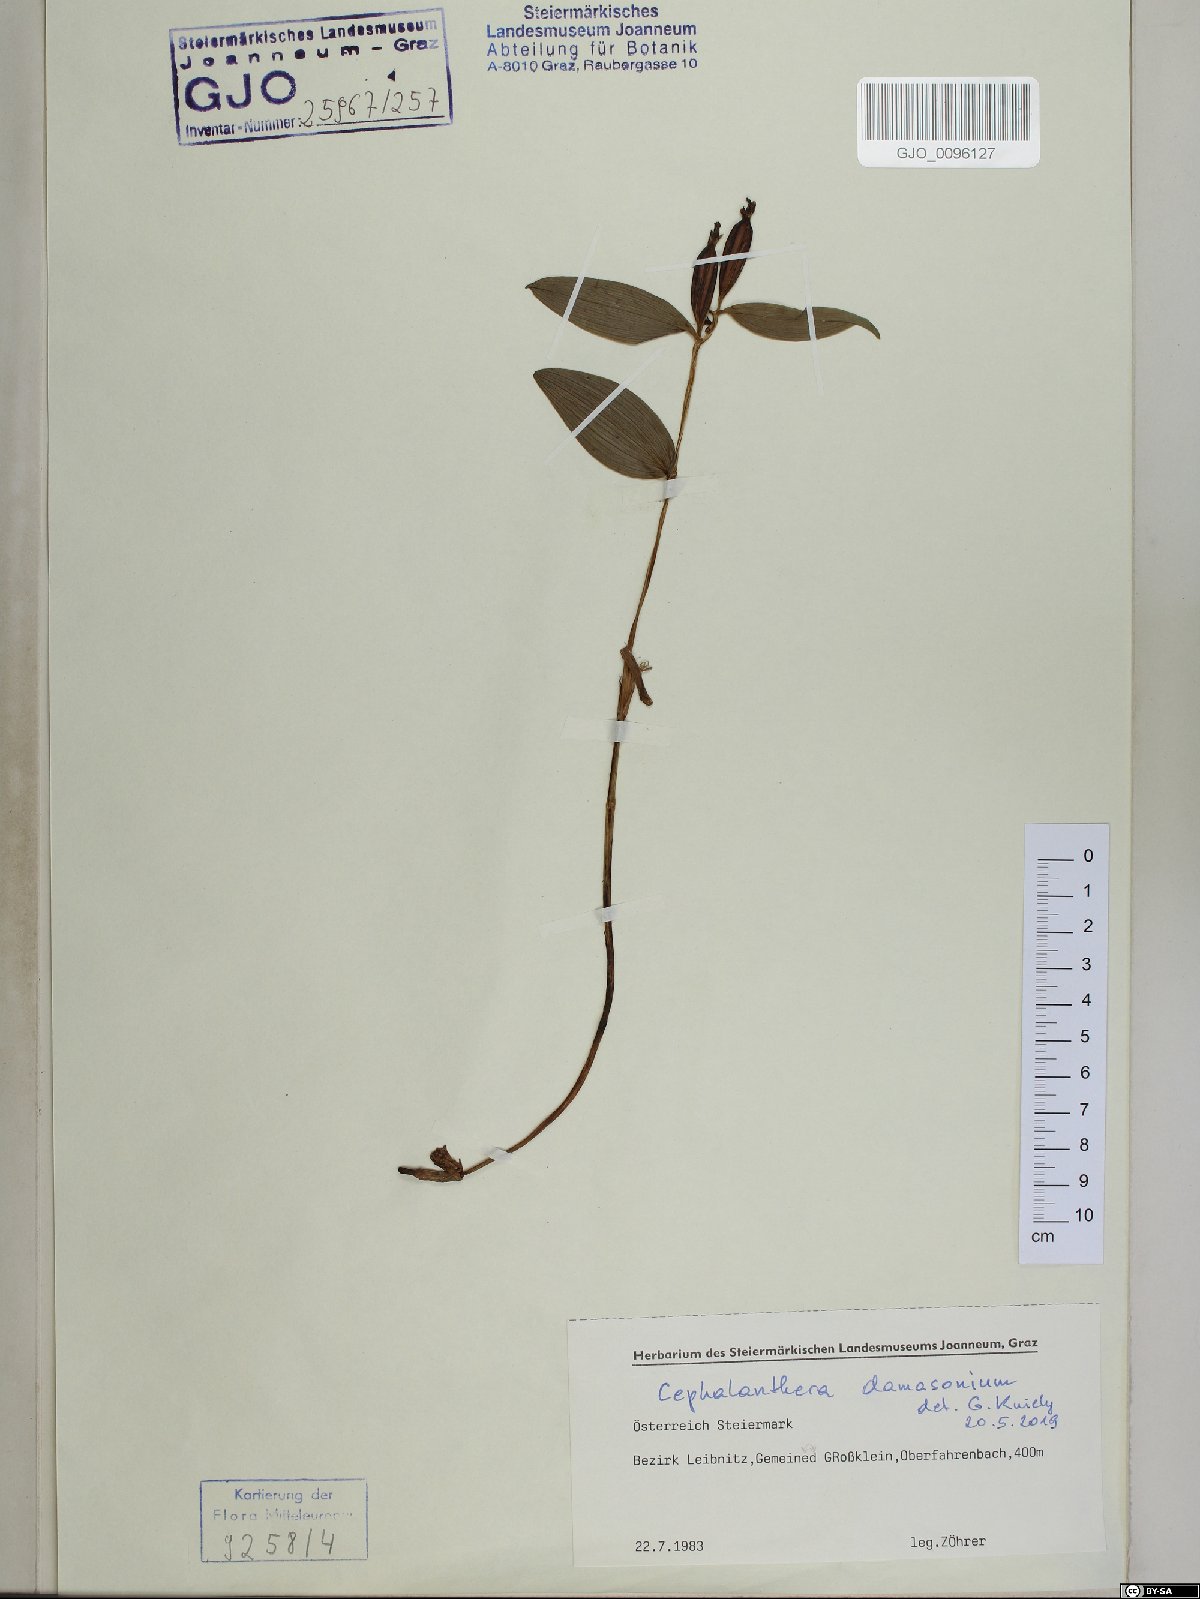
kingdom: Plantae
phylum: Tracheophyta
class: Liliopsida
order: Asparagales
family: Orchidaceae
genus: Cephalanthera
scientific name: Cephalanthera damasonium
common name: White helleborine
